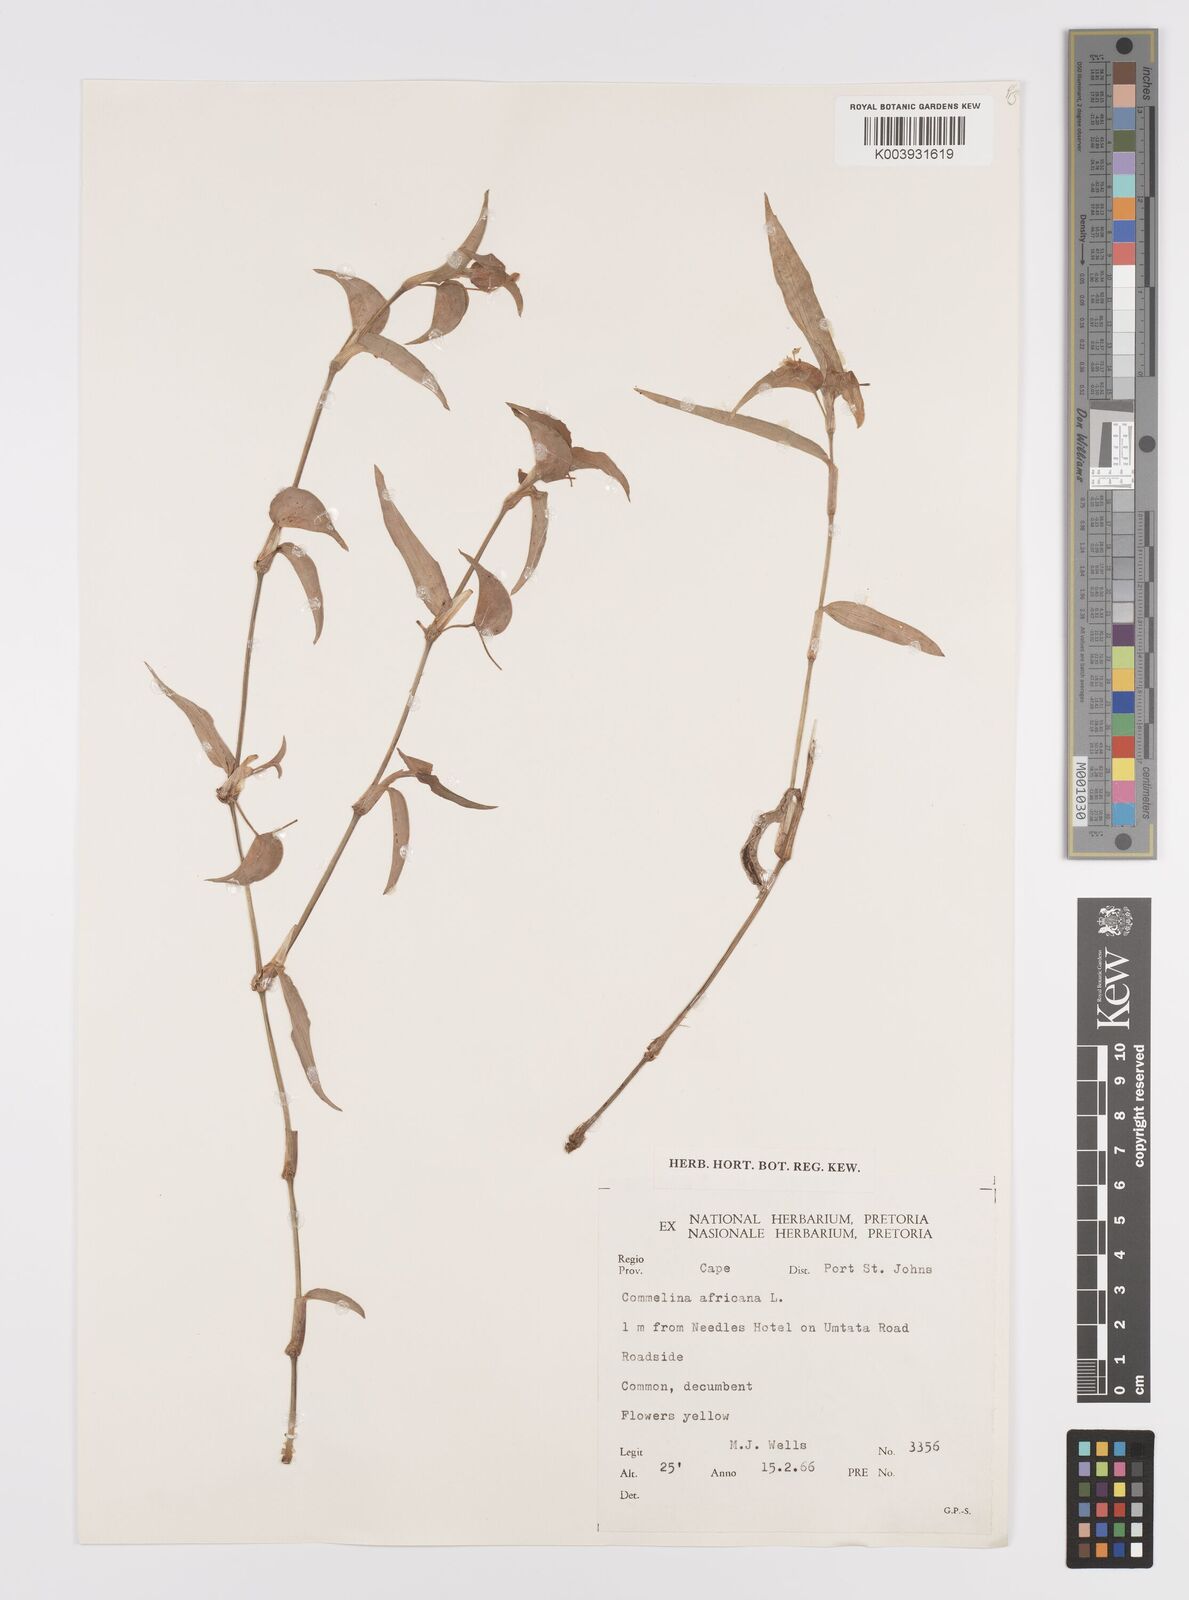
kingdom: Plantae
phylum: Tracheophyta
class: Liliopsida
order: Commelinales
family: Commelinaceae
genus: Commelina
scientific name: Commelina africana
